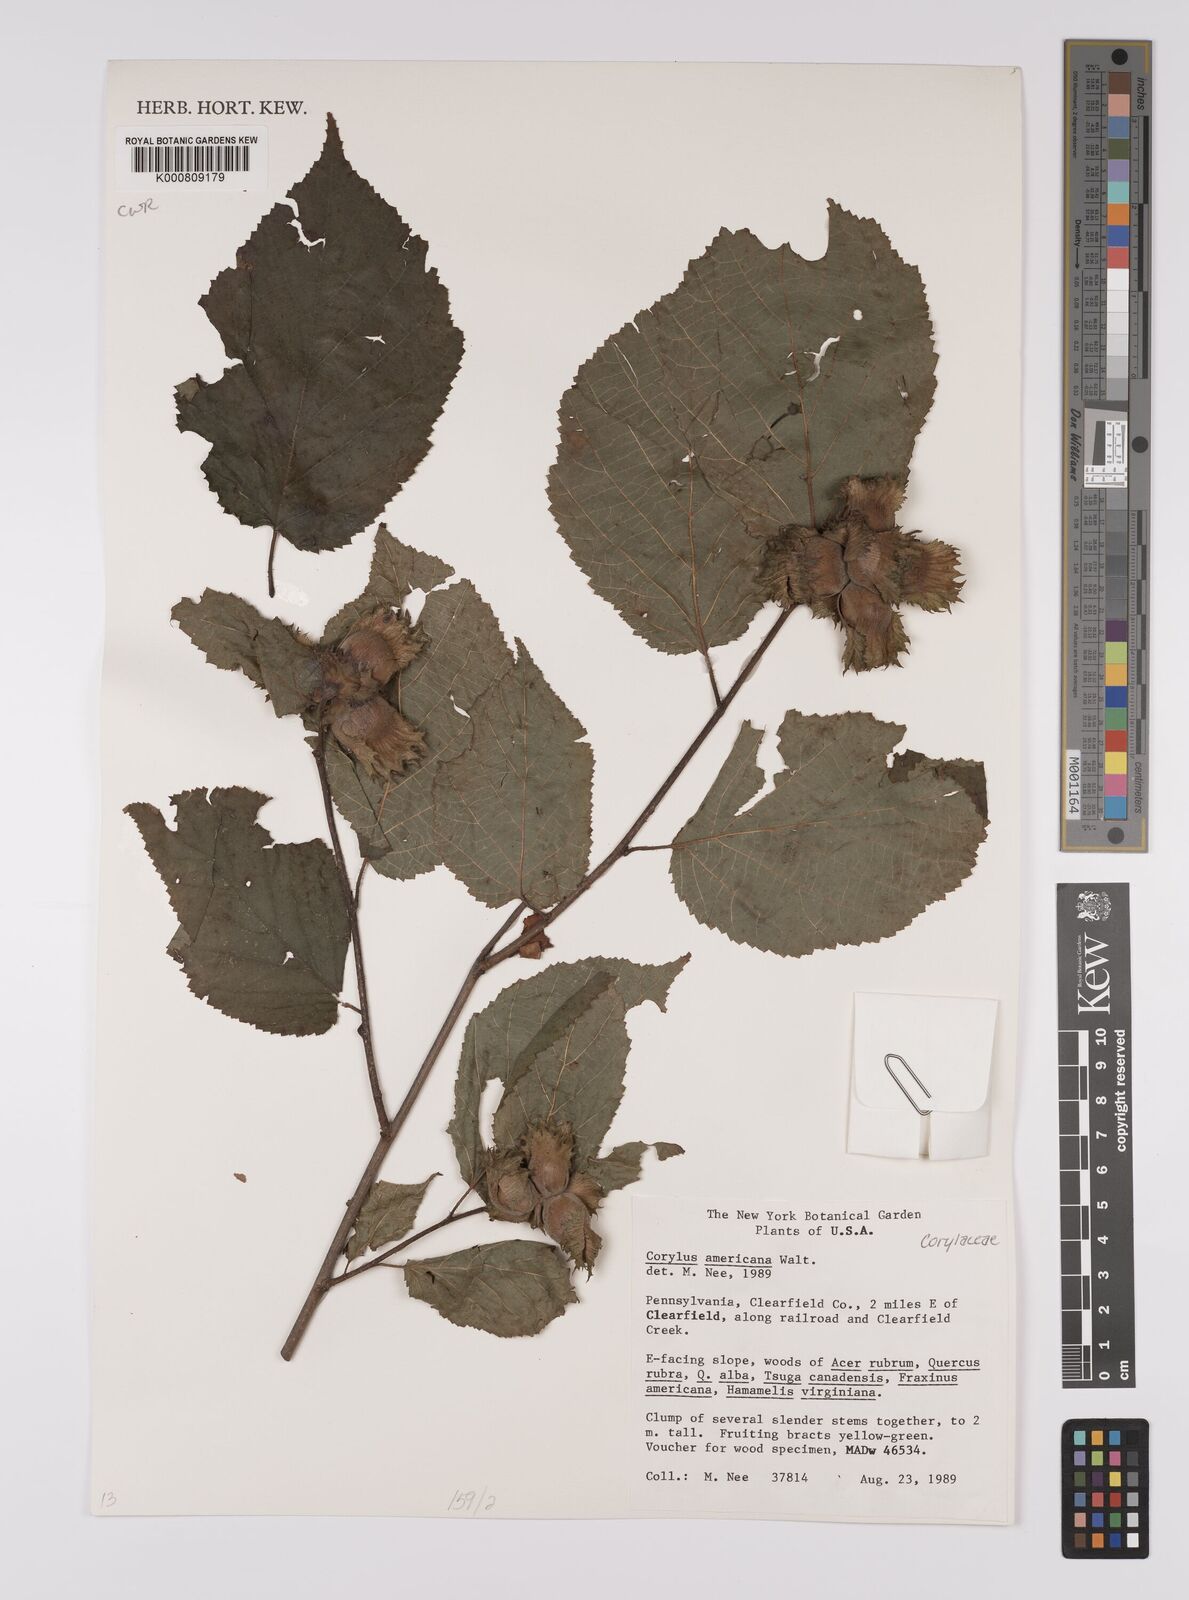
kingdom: Plantae
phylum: Tracheophyta
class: Magnoliopsida
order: Fagales
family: Betulaceae
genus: Corylus
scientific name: Corylus americana
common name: American hazel
